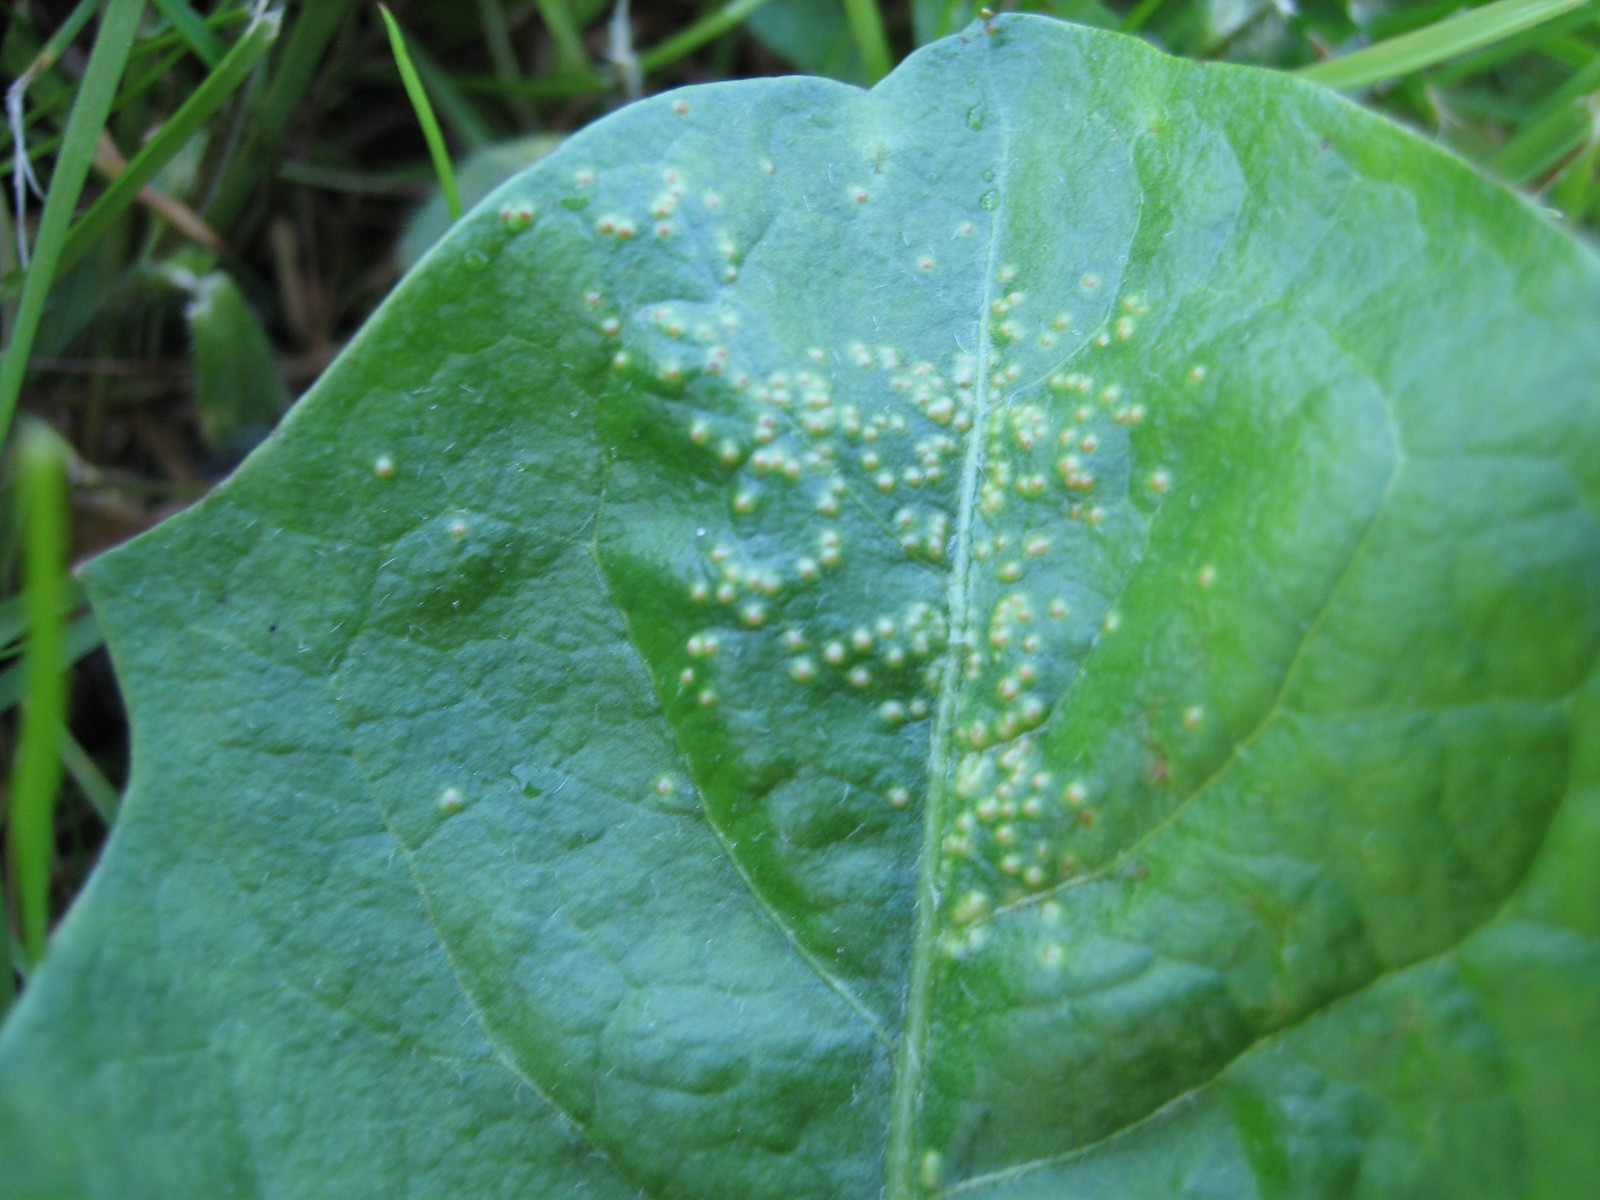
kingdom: Fungi
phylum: Chytridiomycota
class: Chytridiomycetes
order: Chytridiales
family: Synchytriaceae
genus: Synchytrium
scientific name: Synchytrium taraxaci
